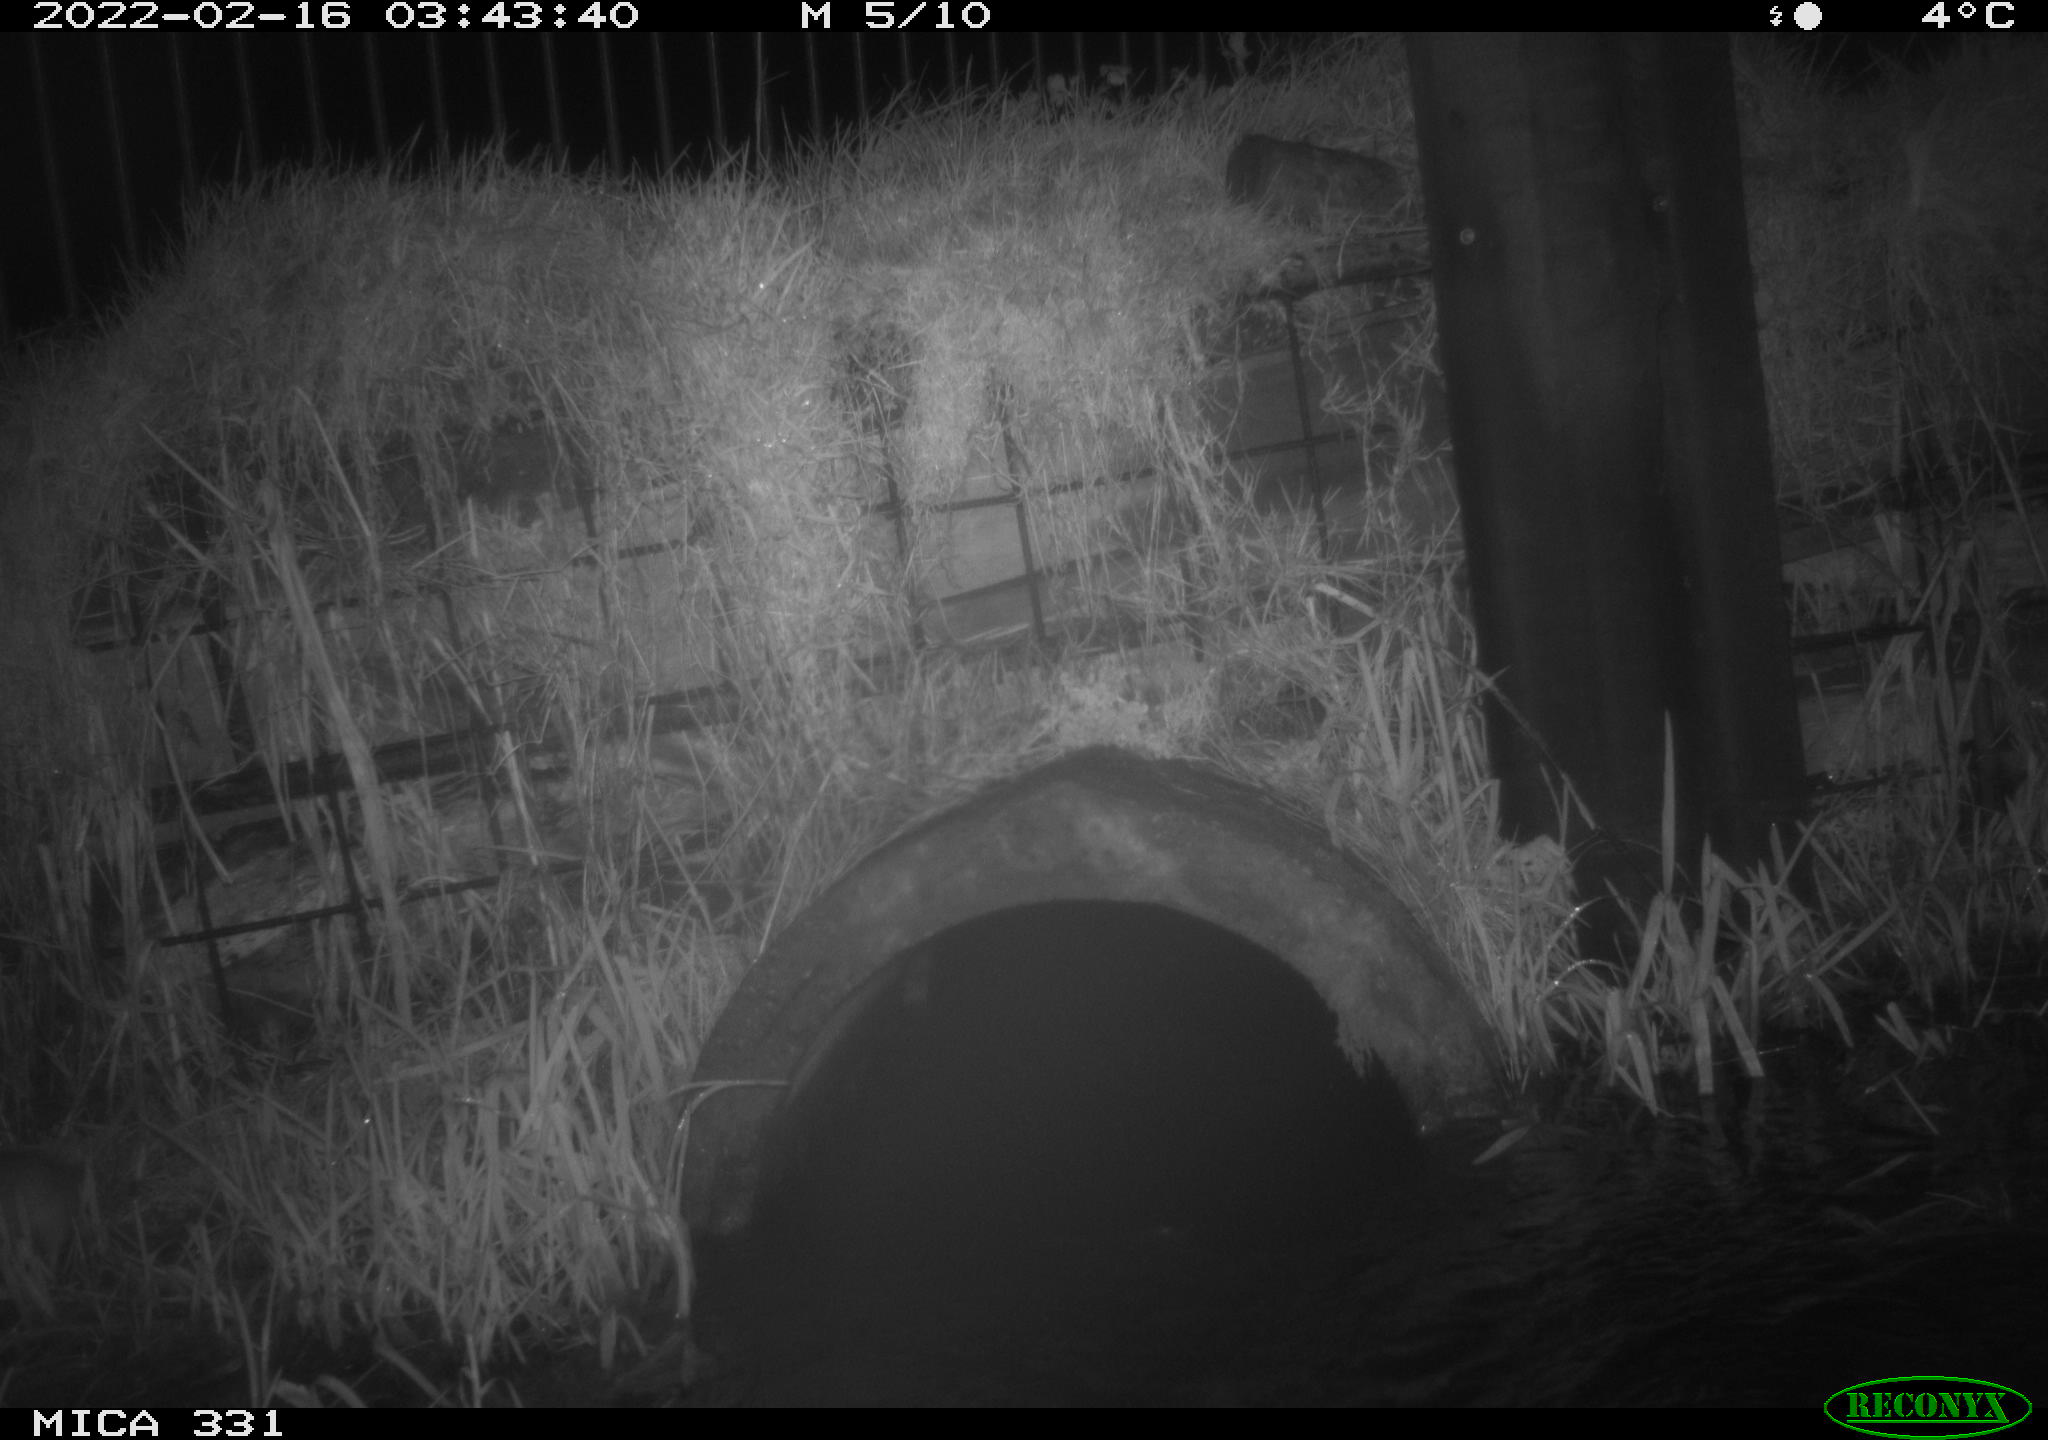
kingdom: Animalia
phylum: Chordata
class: Mammalia
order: Rodentia
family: Muridae
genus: Rattus
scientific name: Rattus norvegicus
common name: Brown rat
